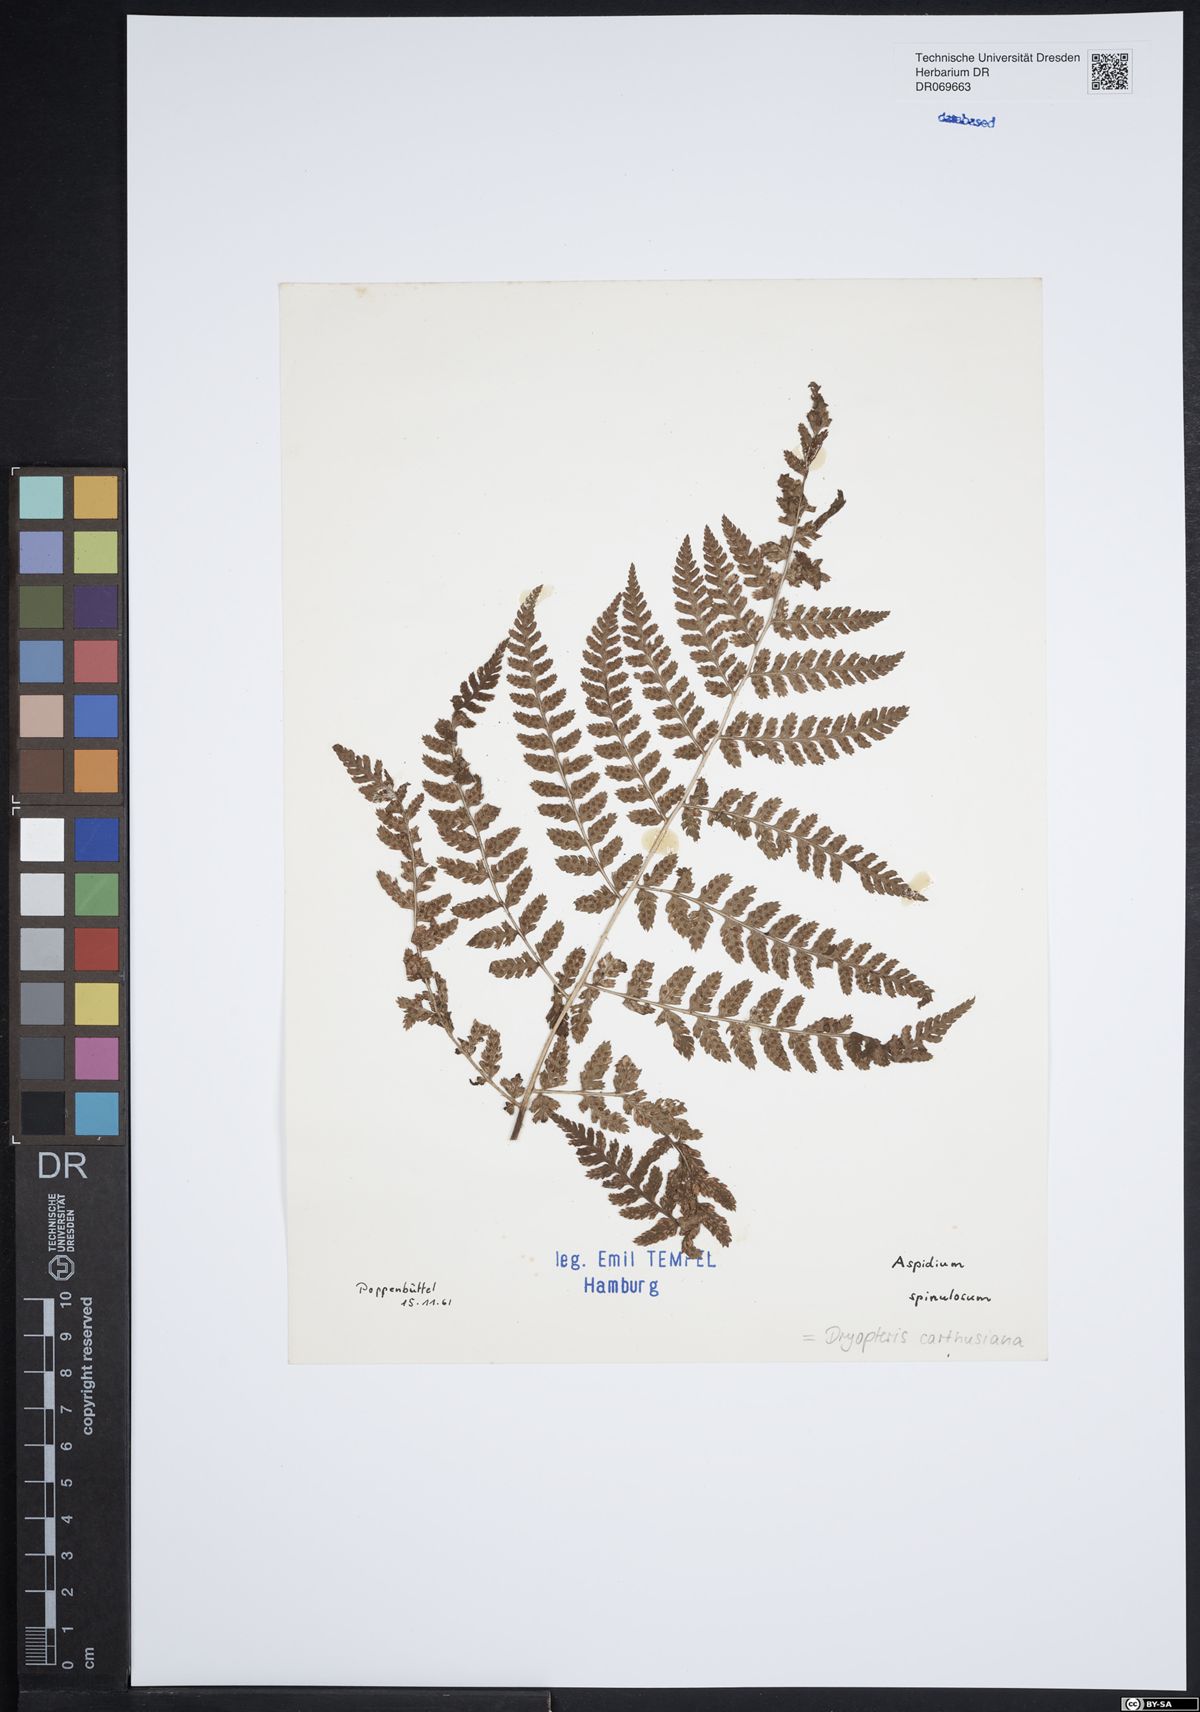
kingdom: Plantae
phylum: Tracheophyta
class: Polypodiopsida
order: Polypodiales
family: Dryopteridaceae
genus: Dryopteris
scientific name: Dryopteris carthusiana
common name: Narrow buckler-fern
